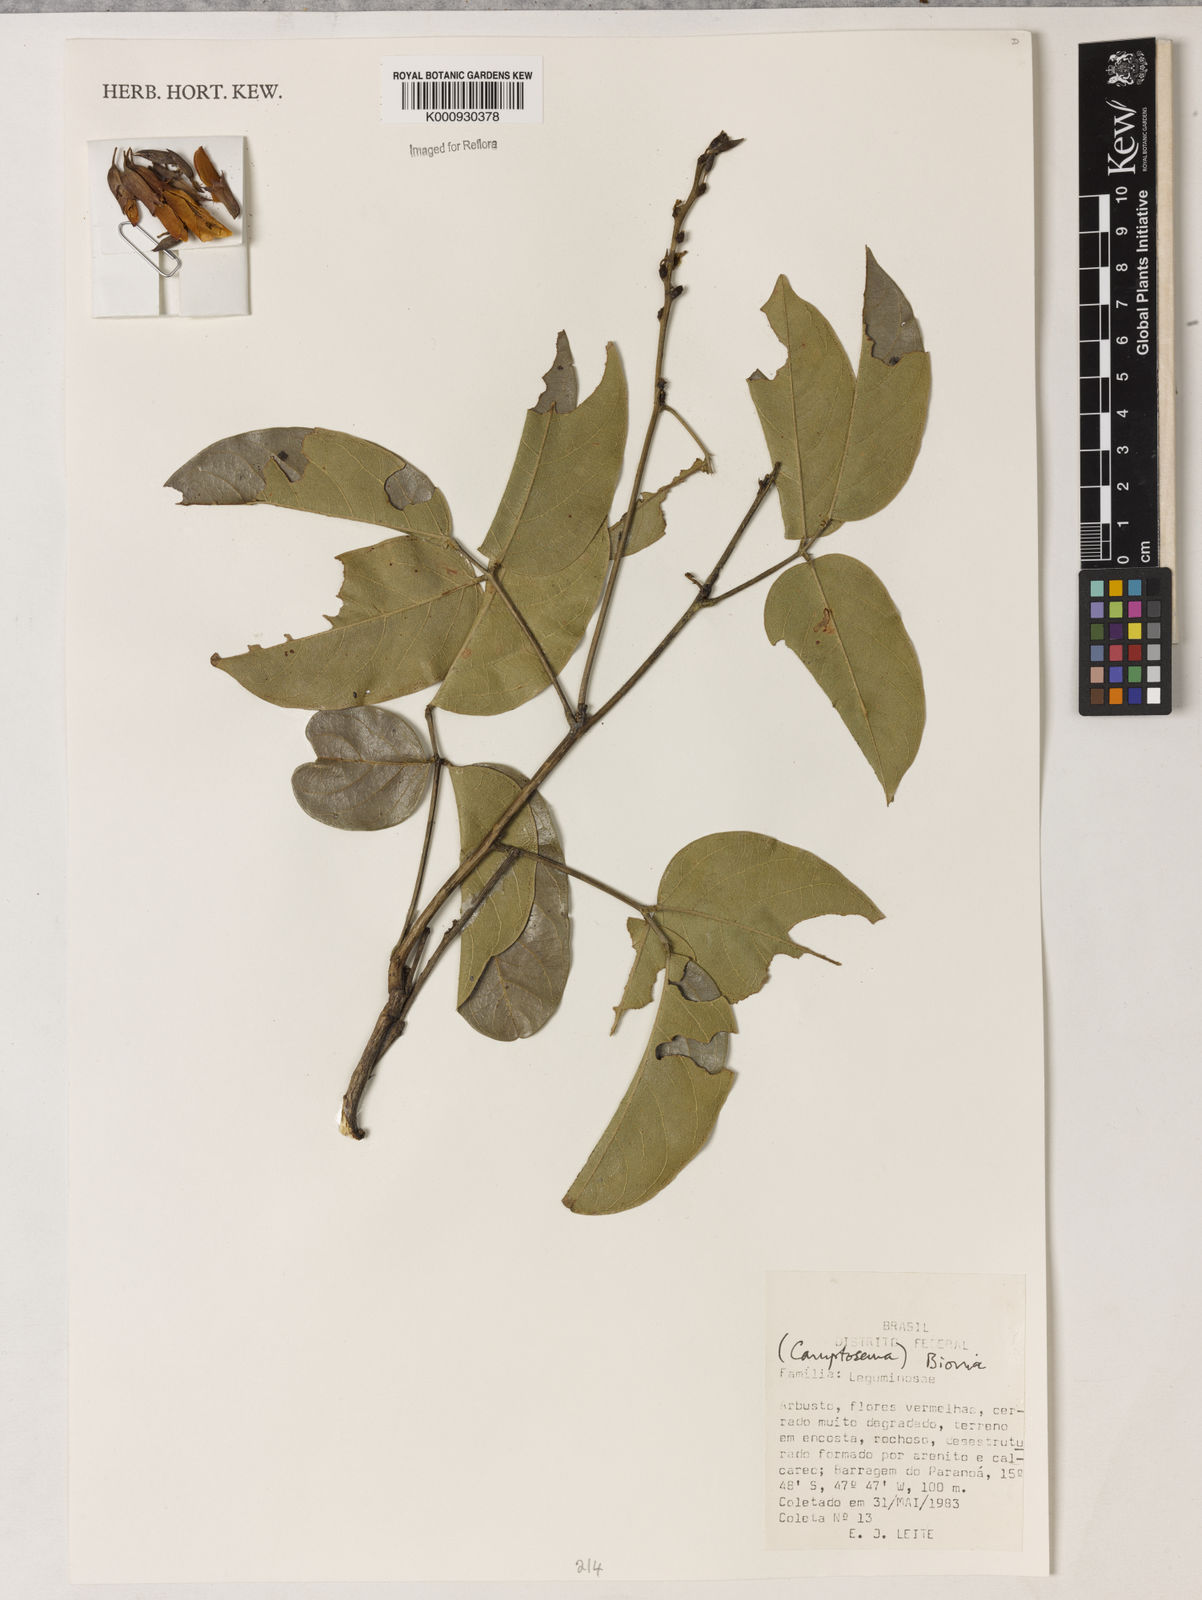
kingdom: Plantae
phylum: Tracheophyta
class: Magnoliopsida
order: Fabales
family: Fabaceae
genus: Camptosema
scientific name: Camptosema
